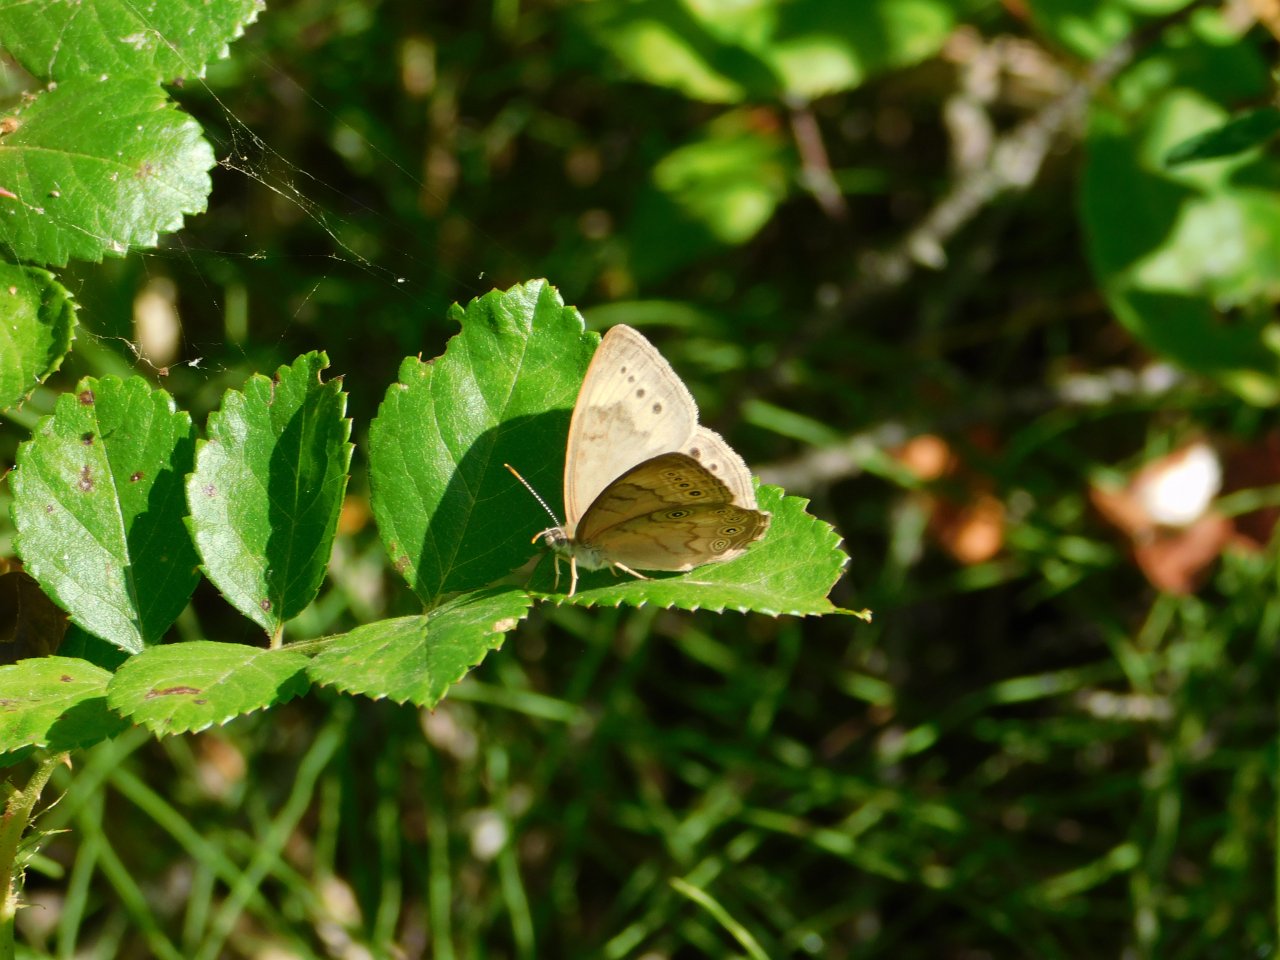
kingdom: Animalia
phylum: Arthropoda
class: Insecta
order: Lepidoptera
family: Nymphalidae
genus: Lethe
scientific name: Lethe eurydice
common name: Eyed Brown
